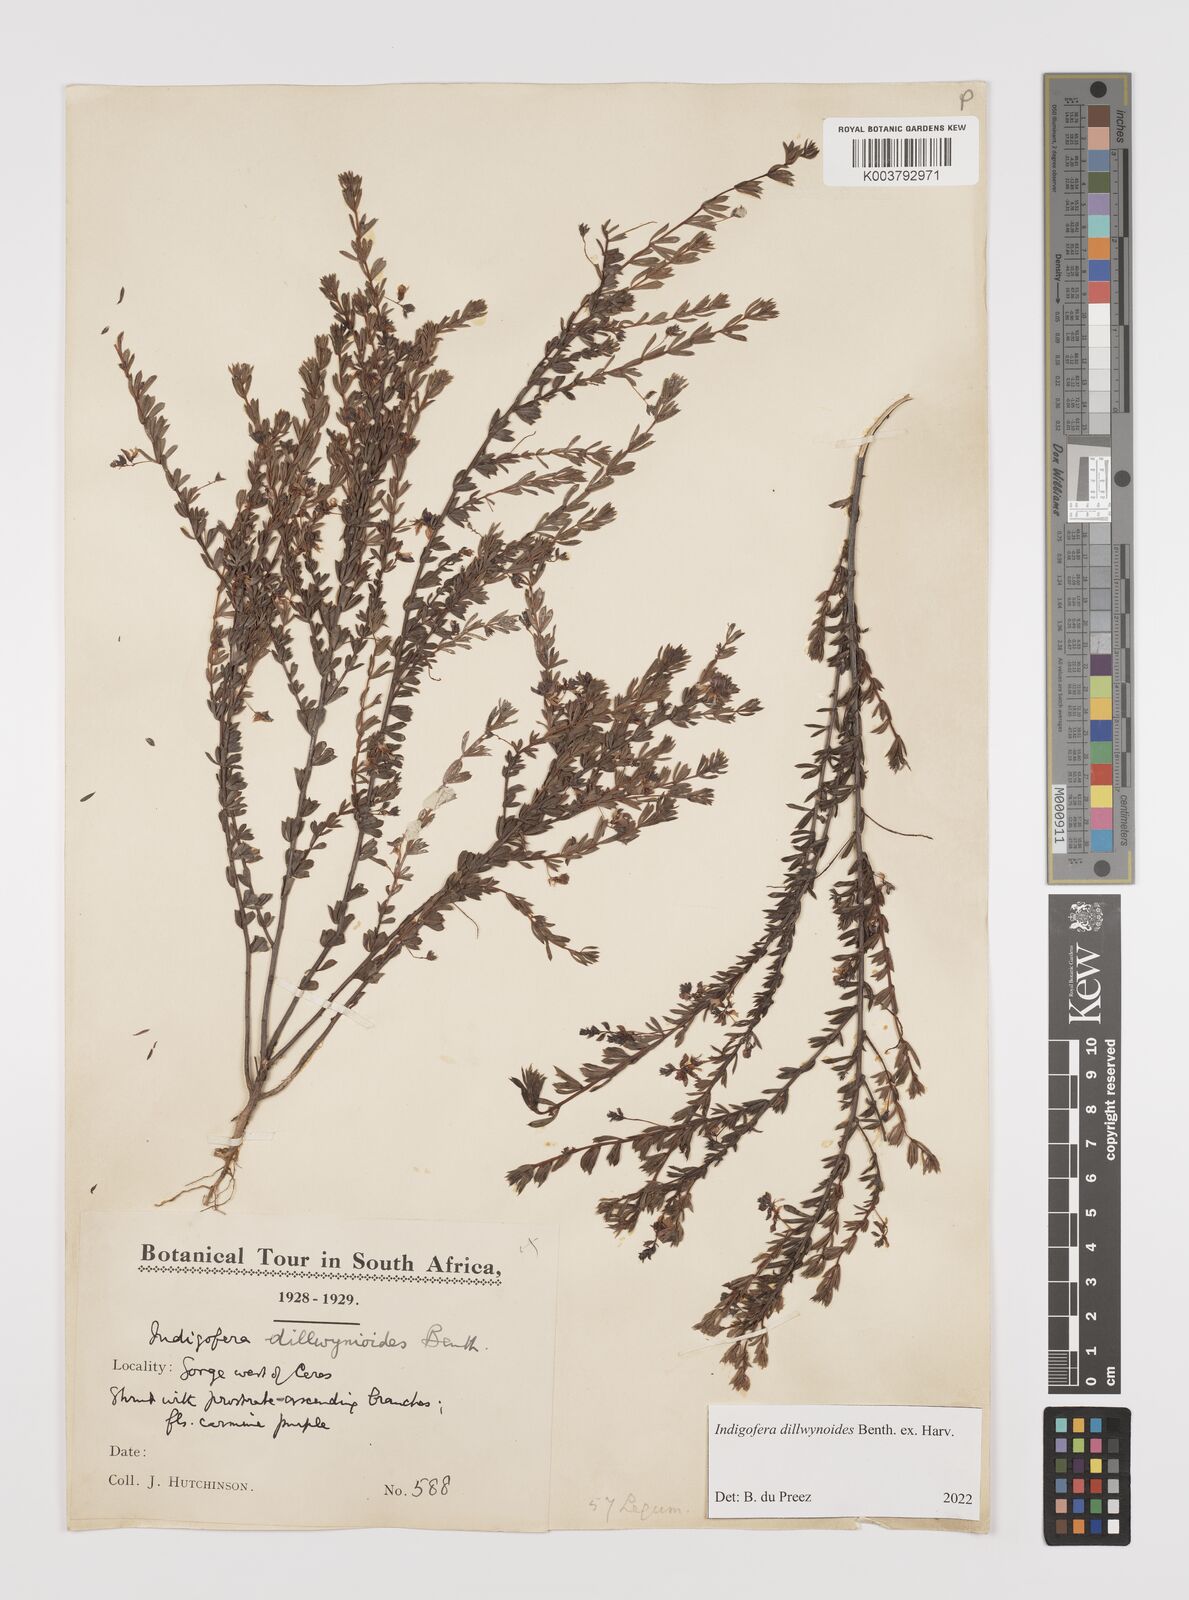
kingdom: Plantae
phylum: Tracheophyta
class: Magnoliopsida
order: Fabales
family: Fabaceae
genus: Indigofera
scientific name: Indigofera dillwynioides
